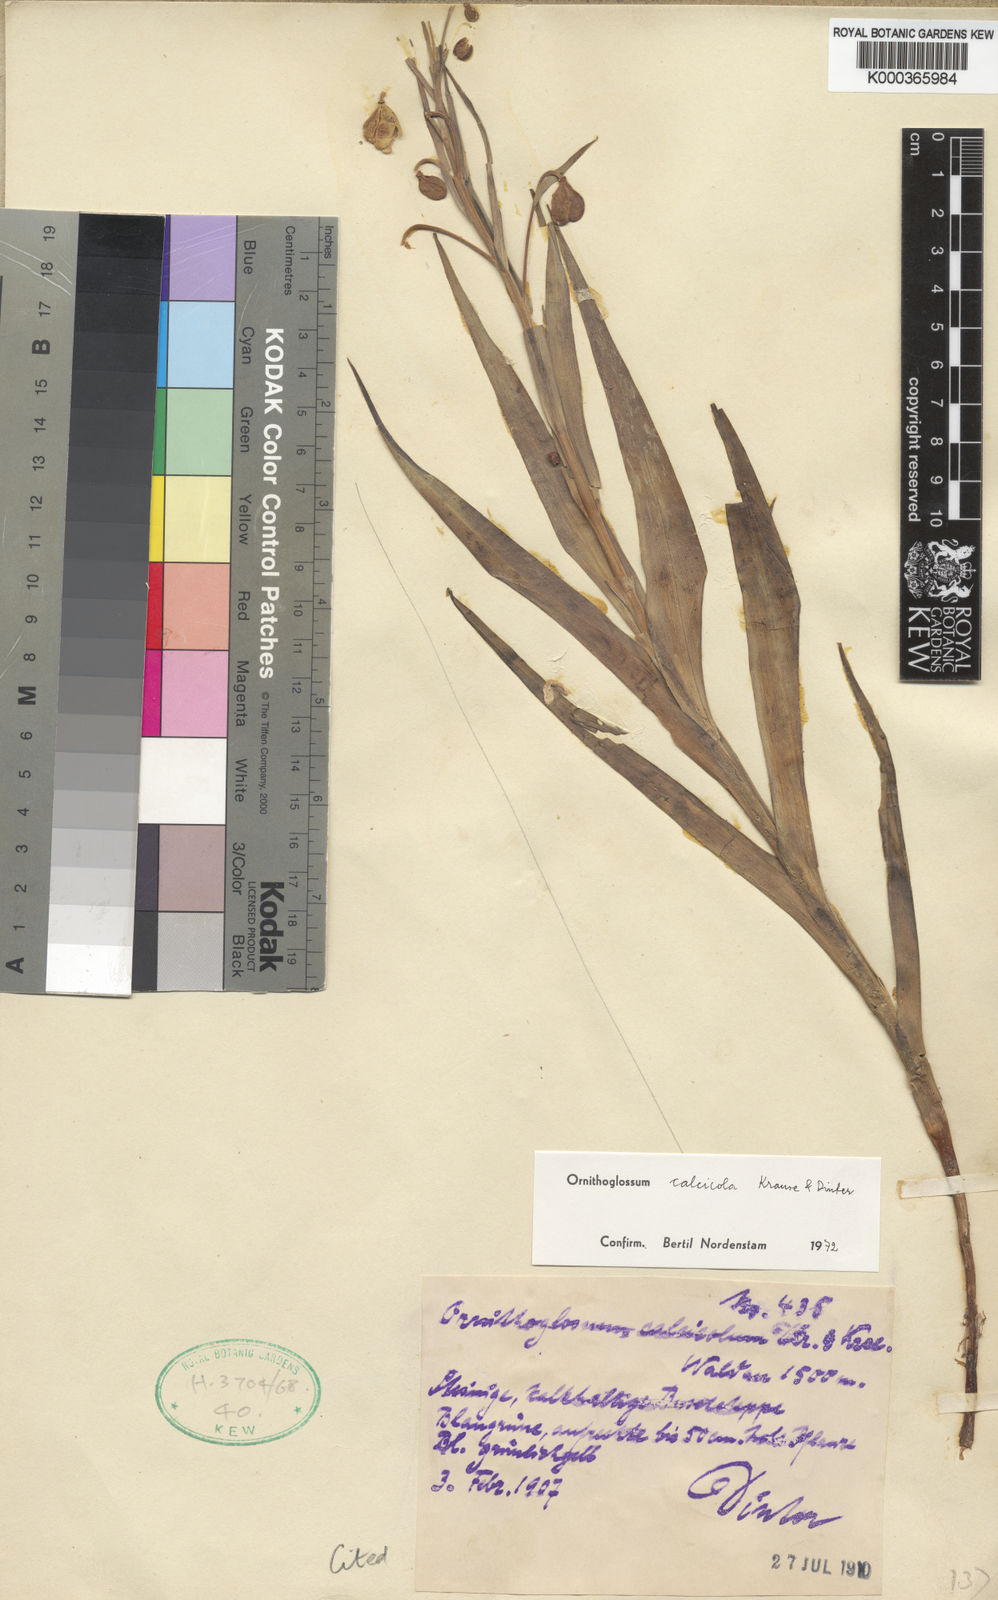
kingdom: Plantae
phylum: Tracheophyta
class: Liliopsida
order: Liliales
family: Colchicaceae
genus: Ornithoglossum
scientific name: Ornithoglossum calcicola
